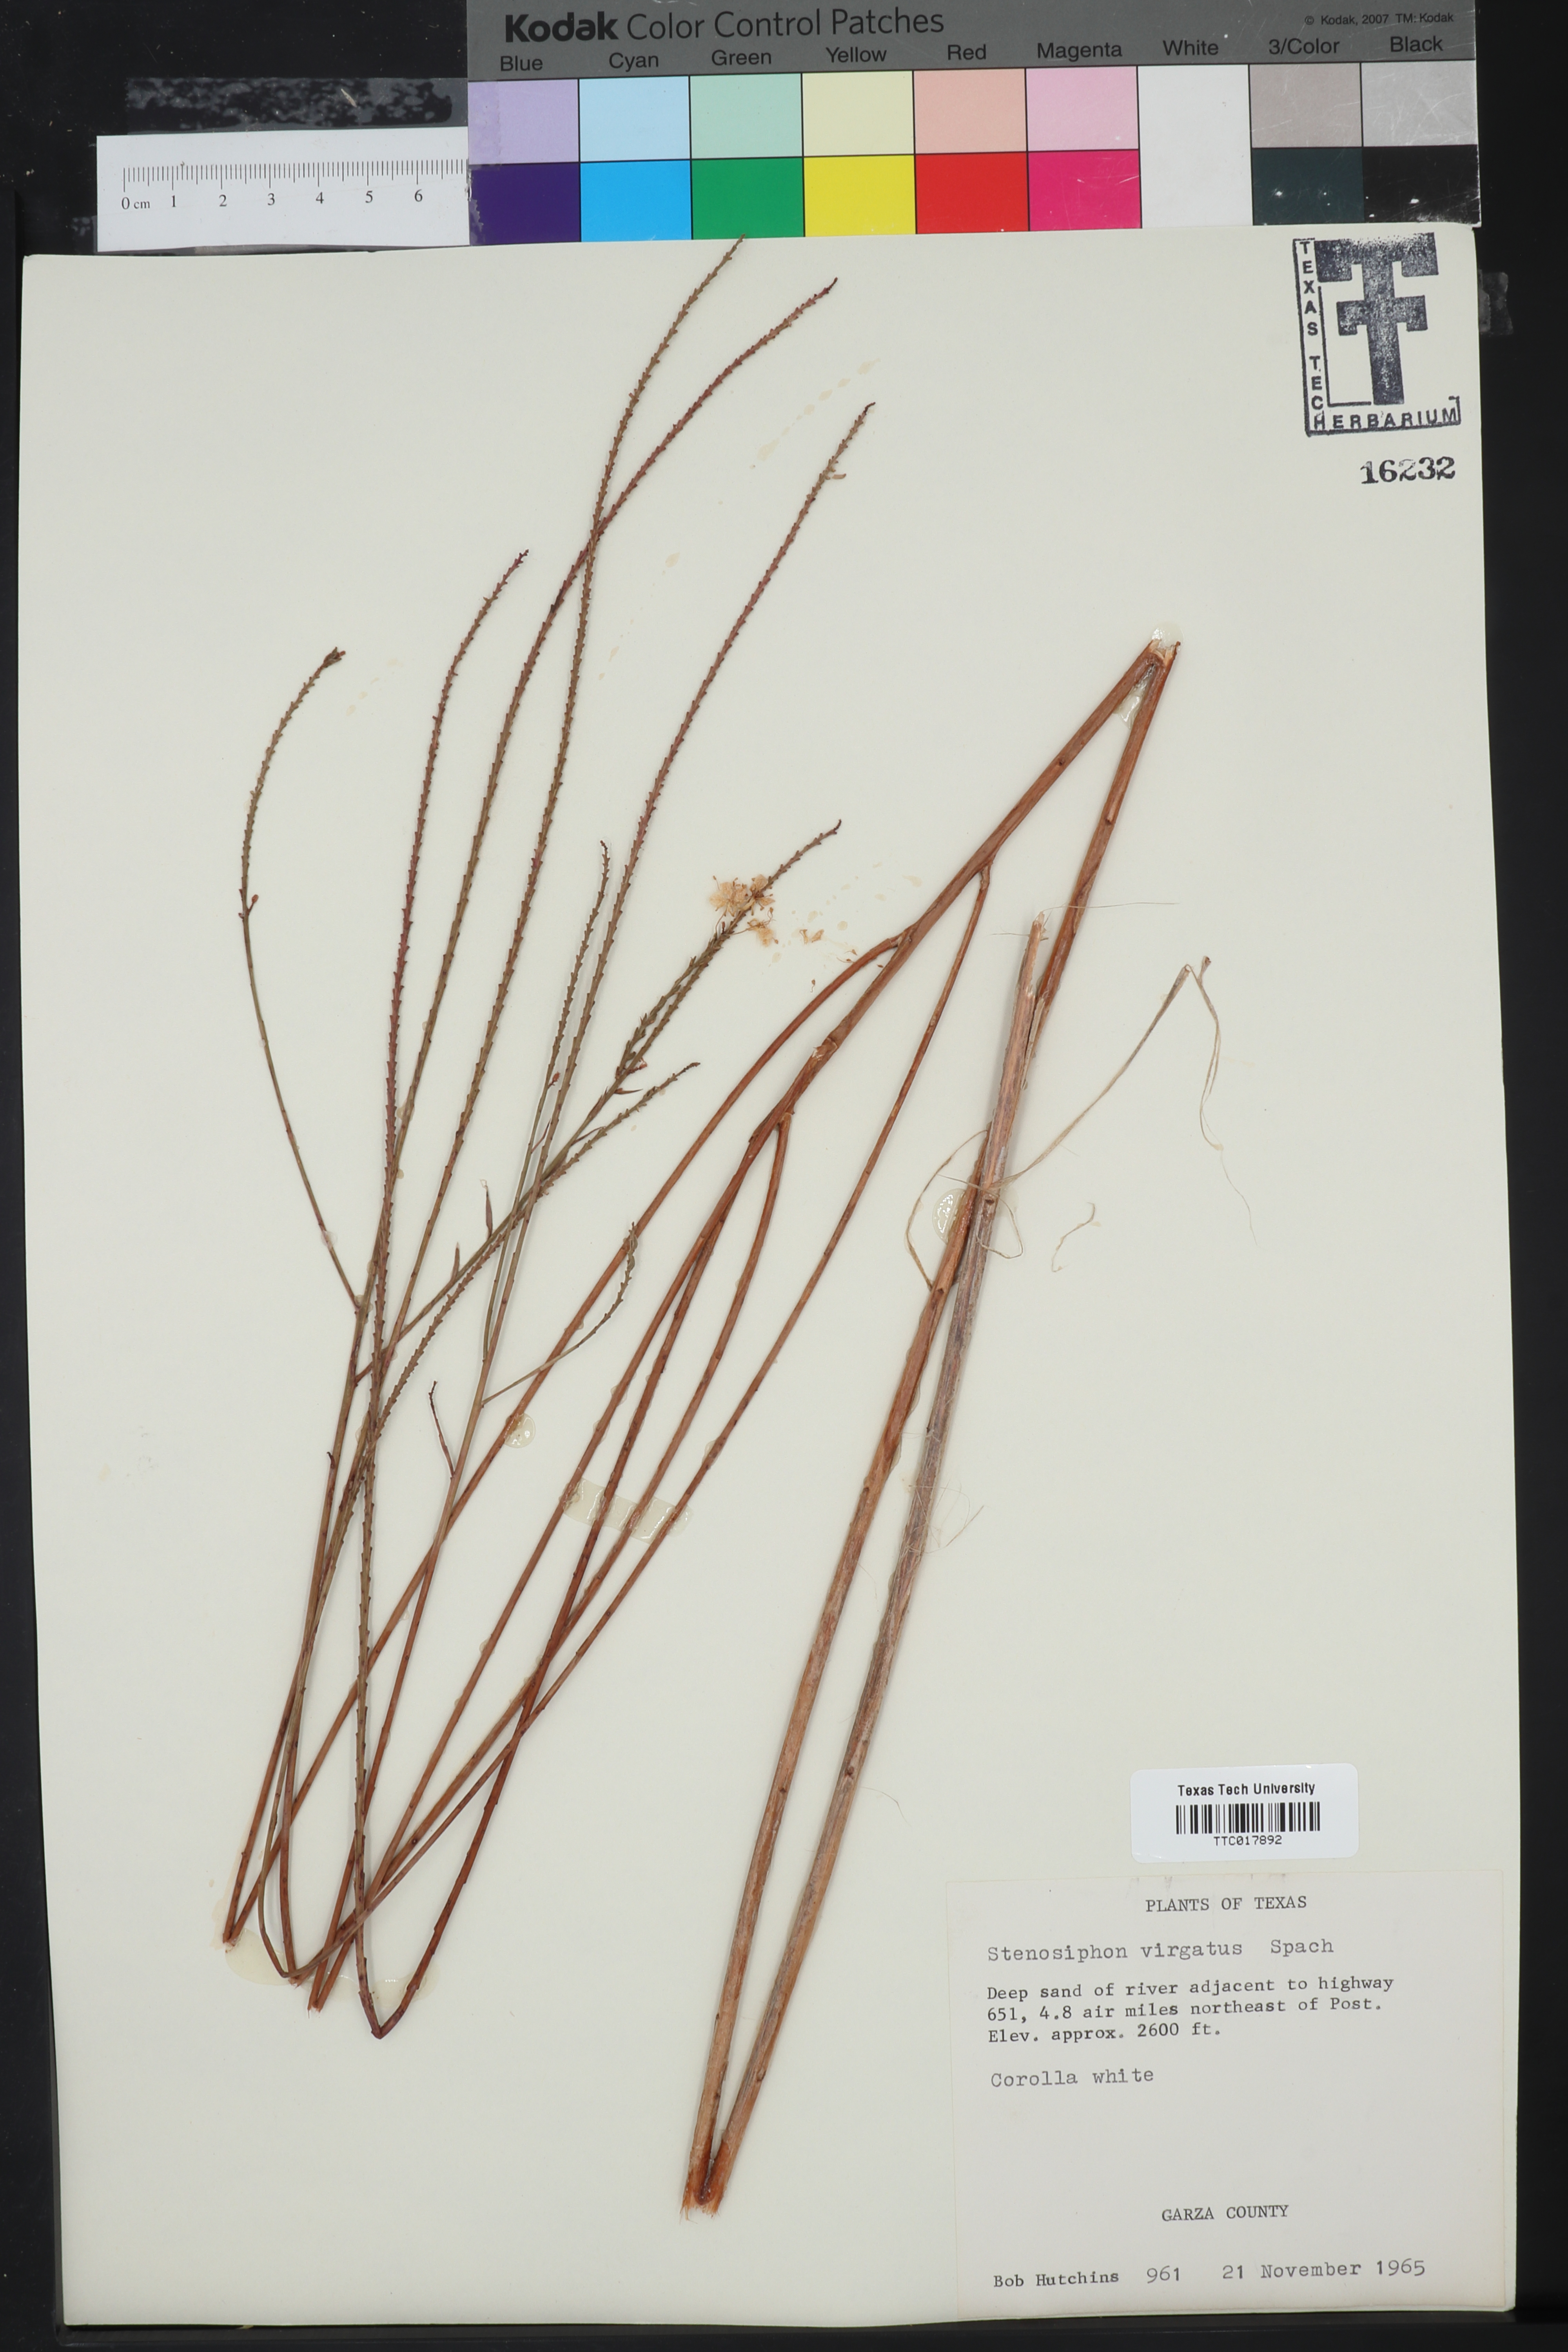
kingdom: Plantae
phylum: Tracheophyta
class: Magnoliopsida
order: Myrtales
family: Onagraceae
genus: Oenothera
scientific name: Oenothera glaucifolia
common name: False gaura
